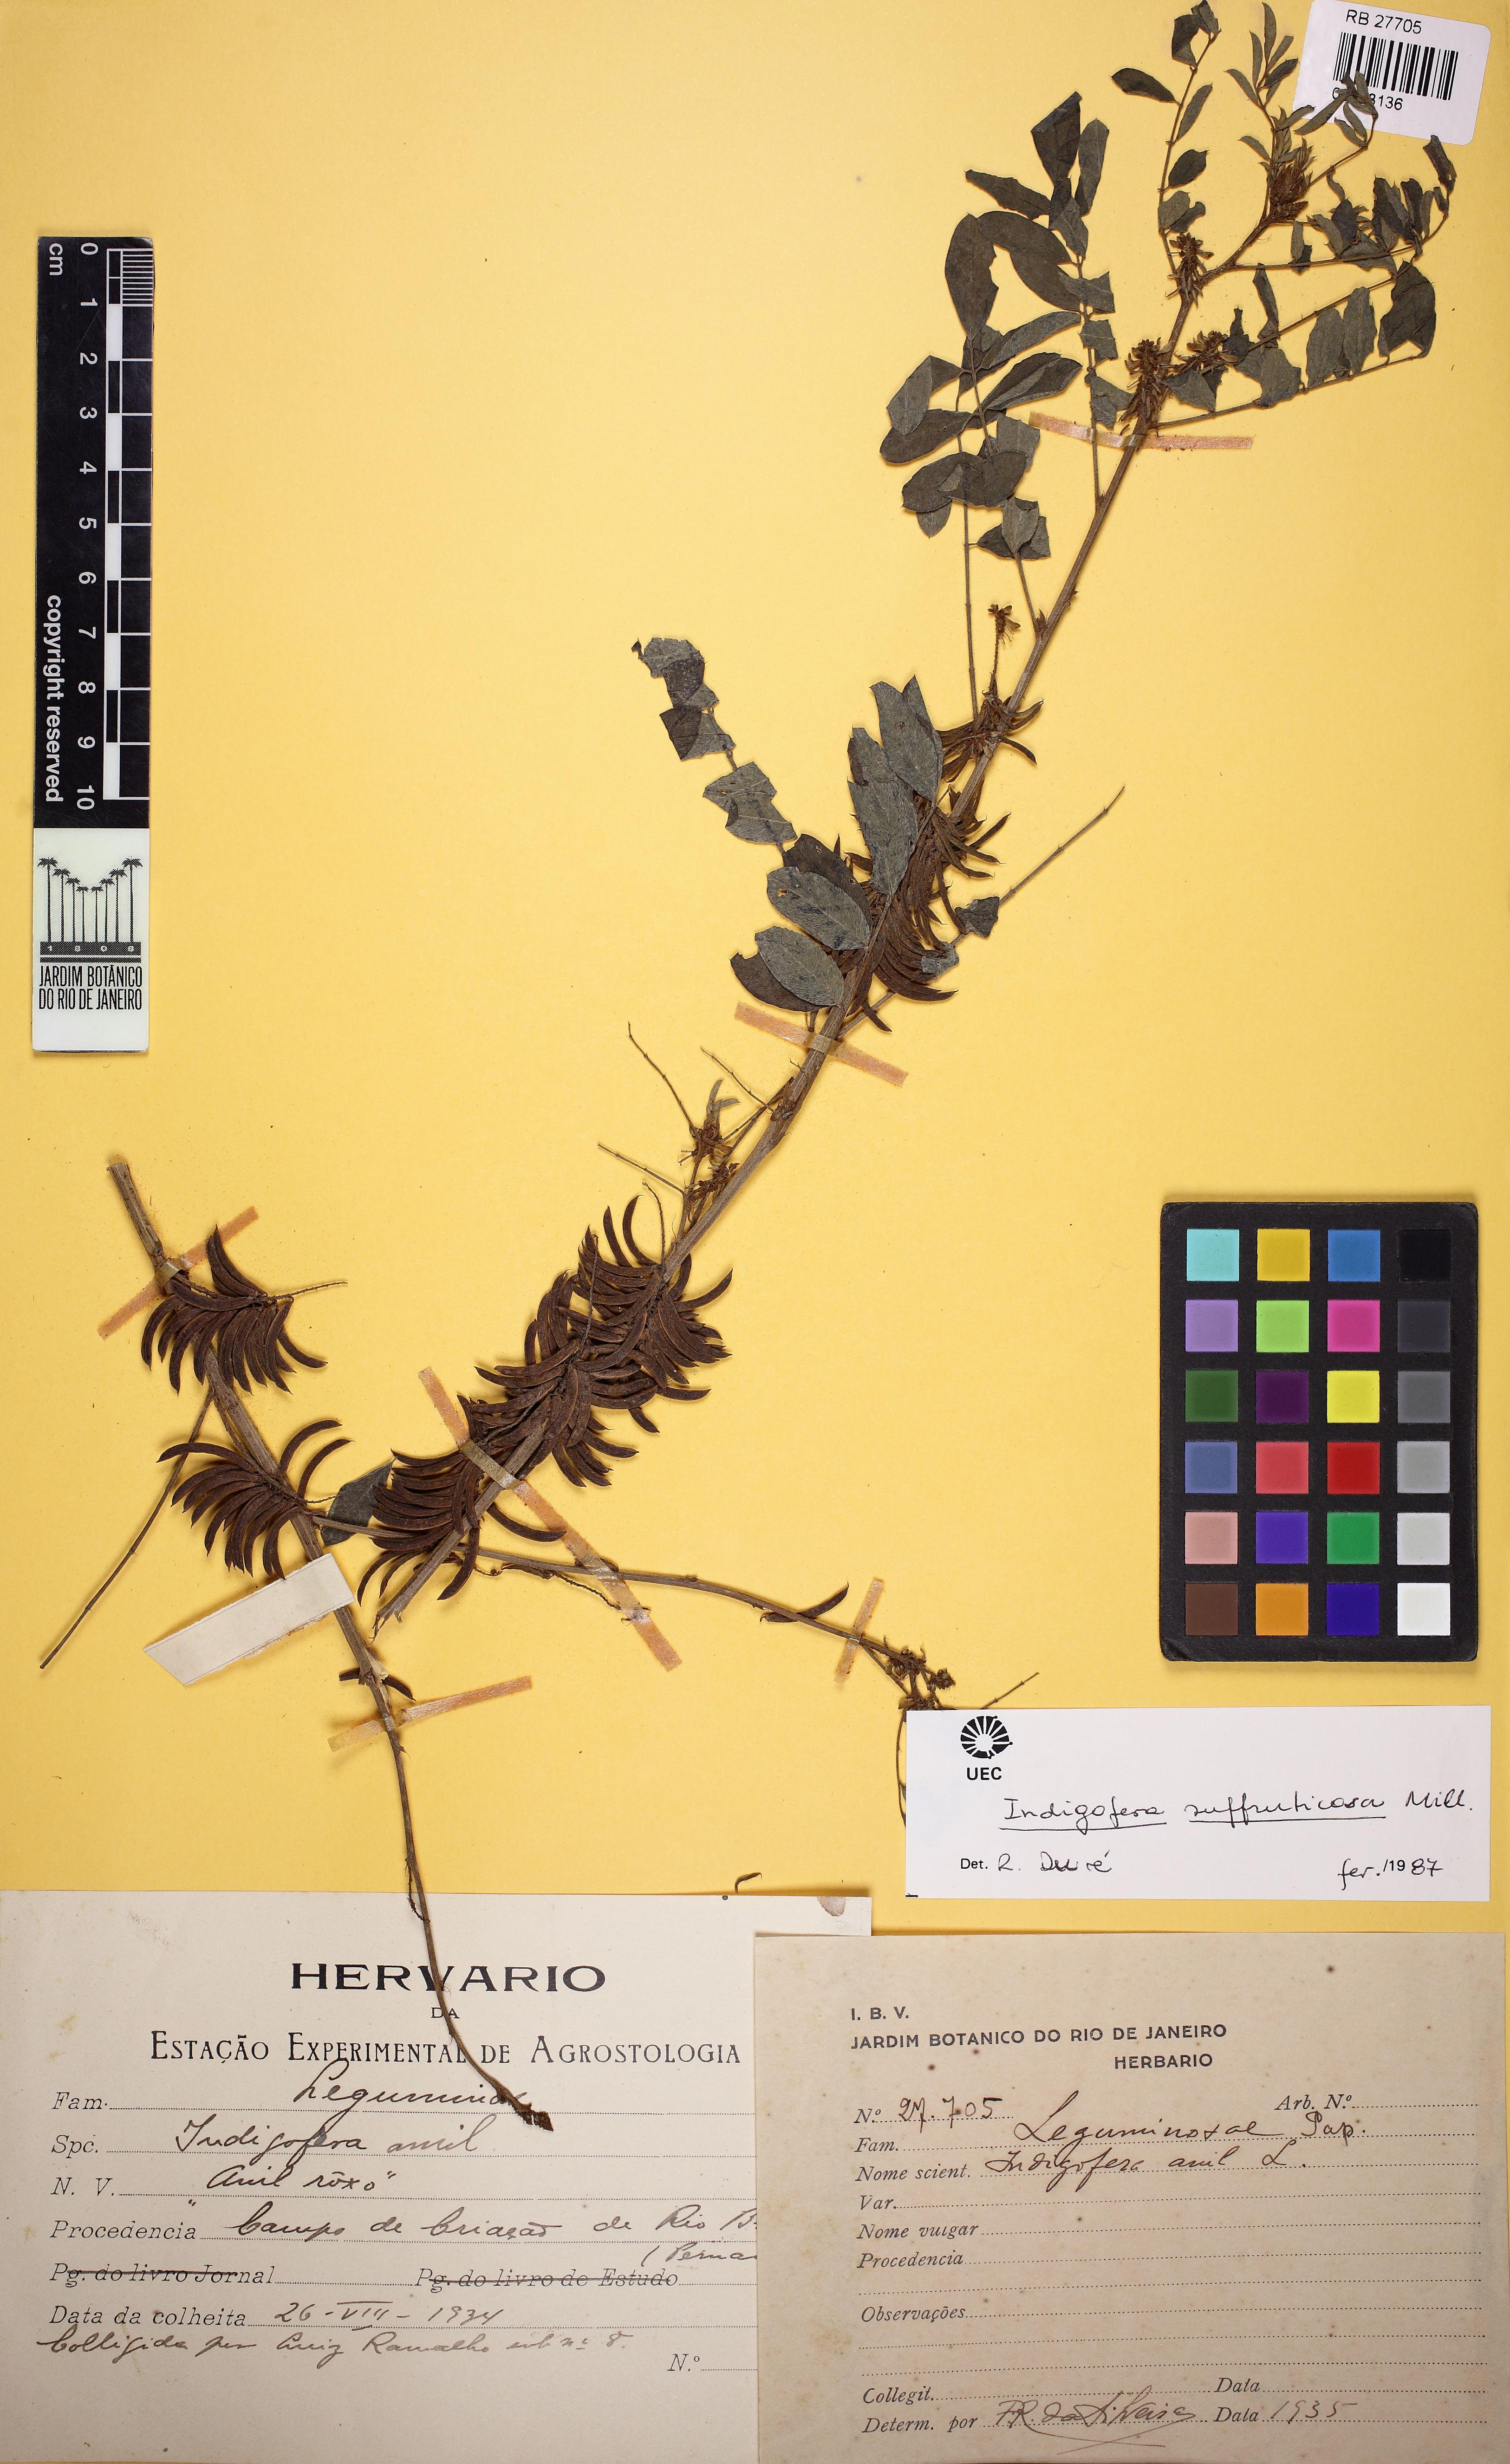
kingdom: Plantae
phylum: Tracheophyta
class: Magnoliopsida
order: Fabales
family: Fabaceae
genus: Indigofera
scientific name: Indigofera suffruticosa
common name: Anil de pasto
